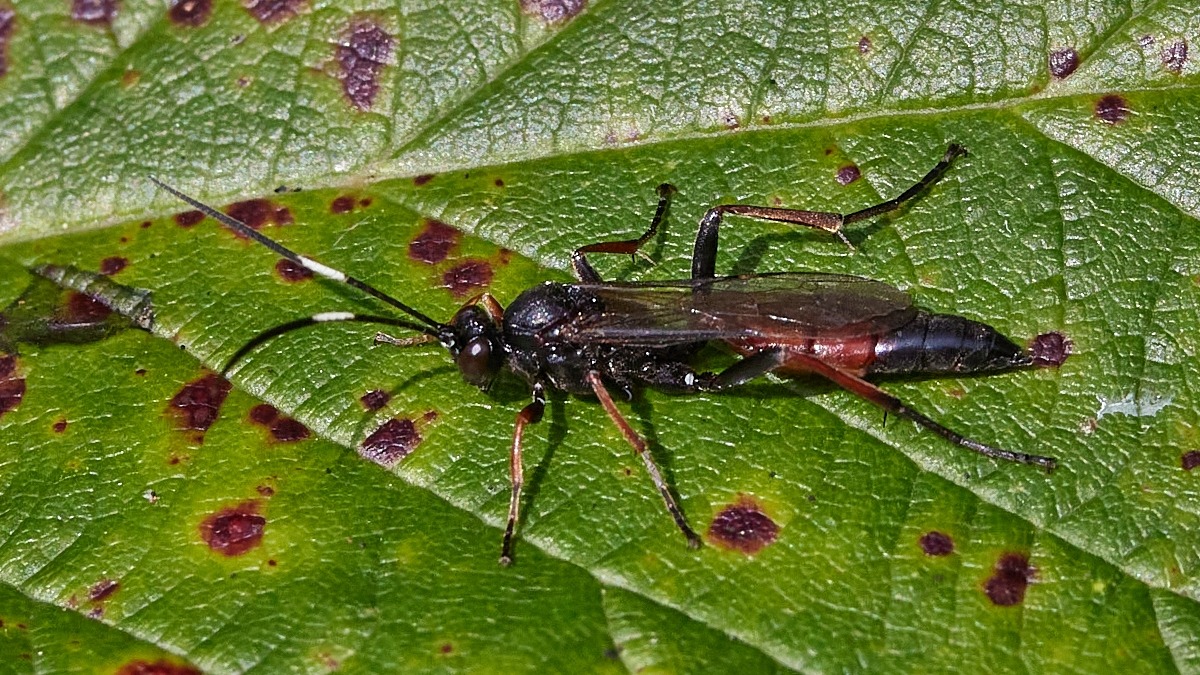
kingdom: Animalia
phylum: Arthropoda
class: Insecta
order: Hymenoptera
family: Ichneumonidae
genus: Stenichneumon
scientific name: Stenichneumon culpator
